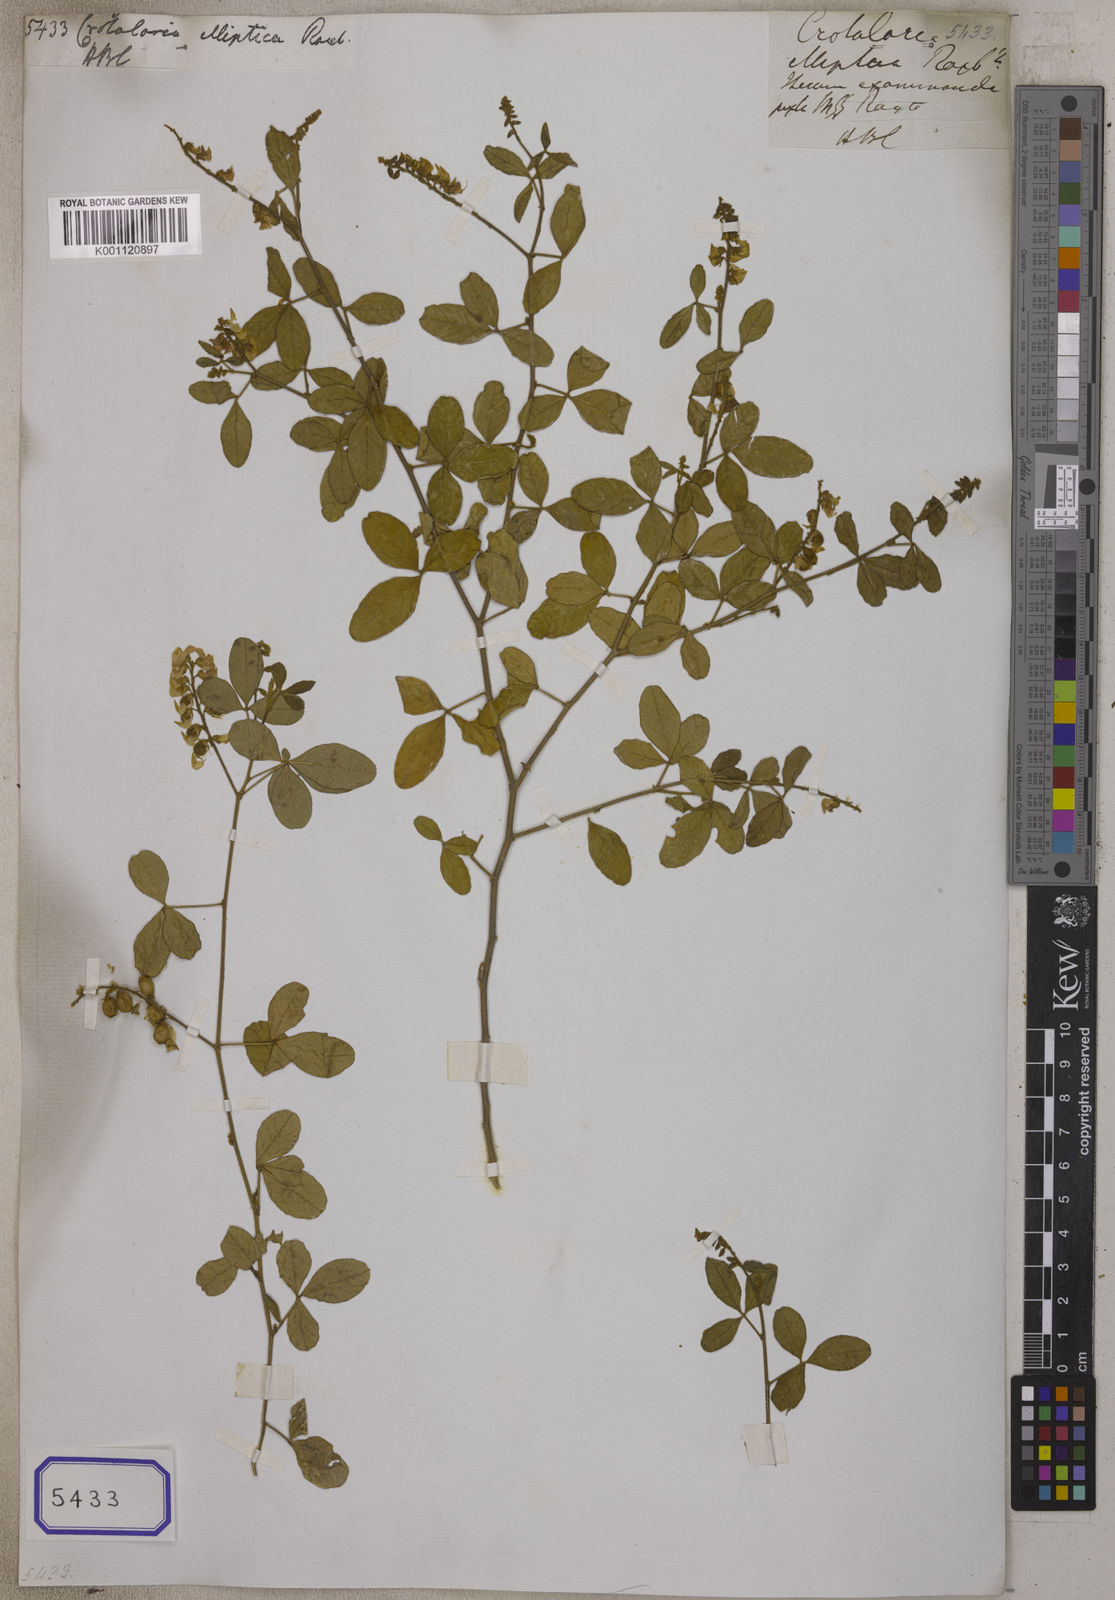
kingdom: Plantae
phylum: Tracheophyta
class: Magnoliopsida
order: Fabales
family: Fabaceae
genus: Crotalaria
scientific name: Crotalaria uncinella
